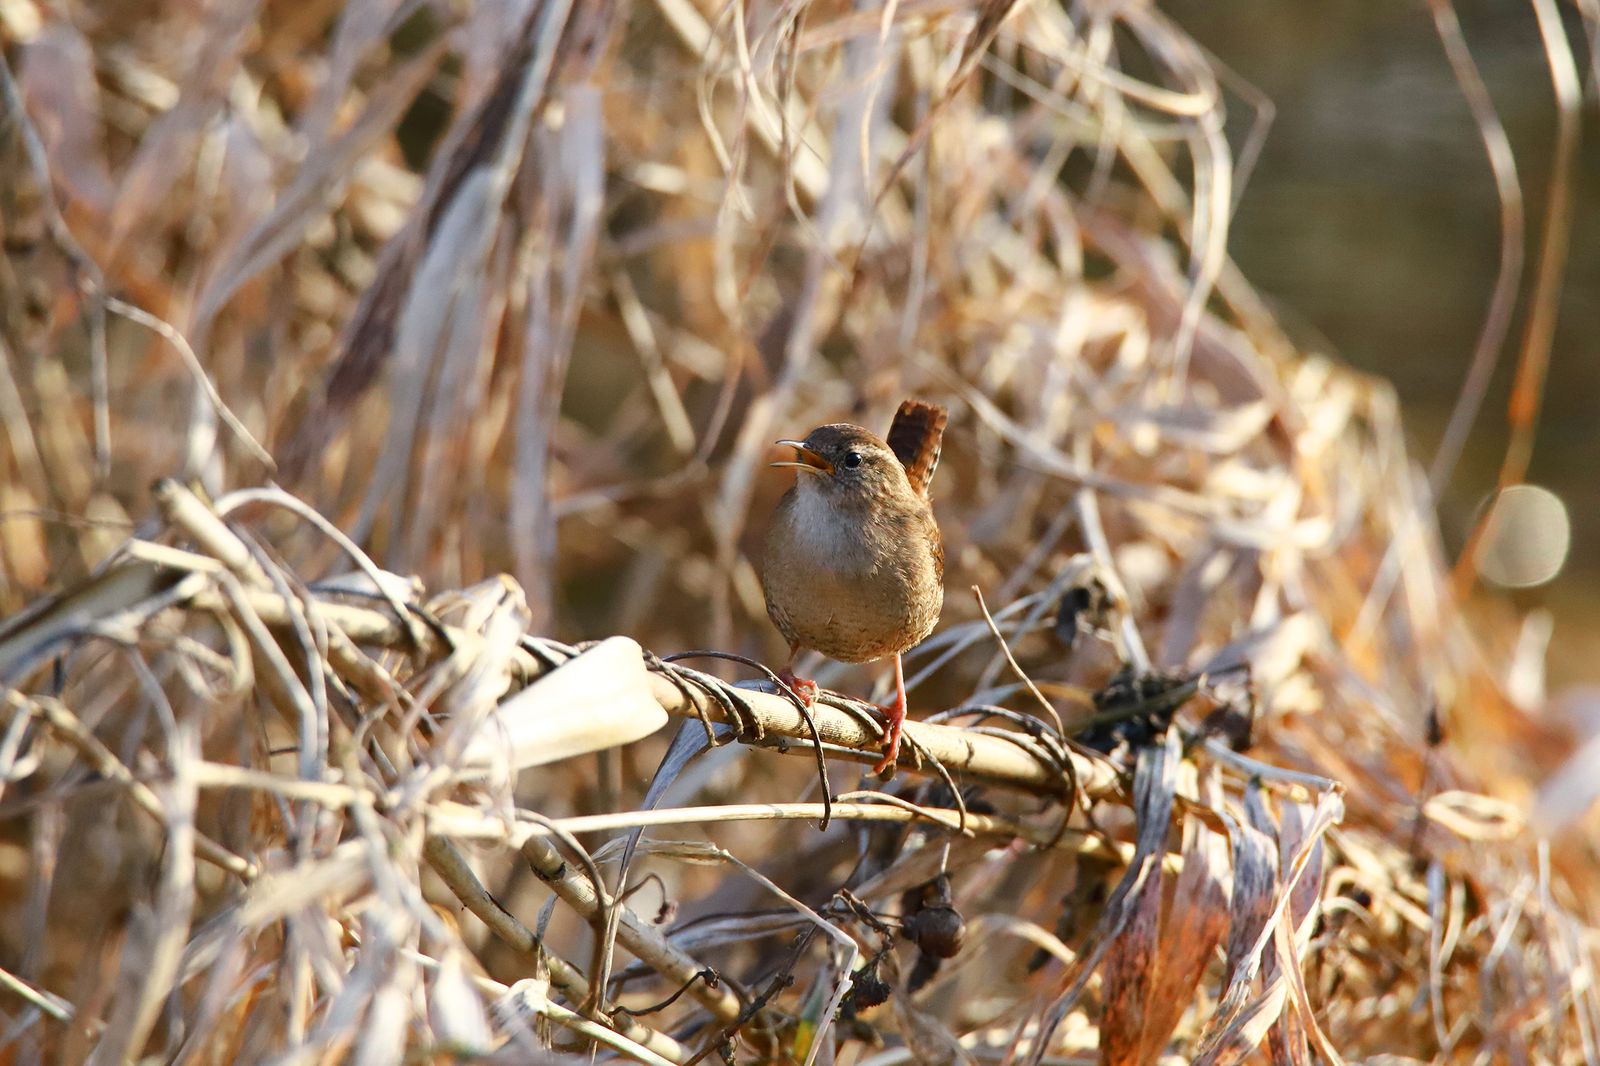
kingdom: Animalia
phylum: Chordata
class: Aves
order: Passeriformes
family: Troglodytidae
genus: Troglodytes
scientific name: Troglodytes troglodytes
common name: Eurasian wren
